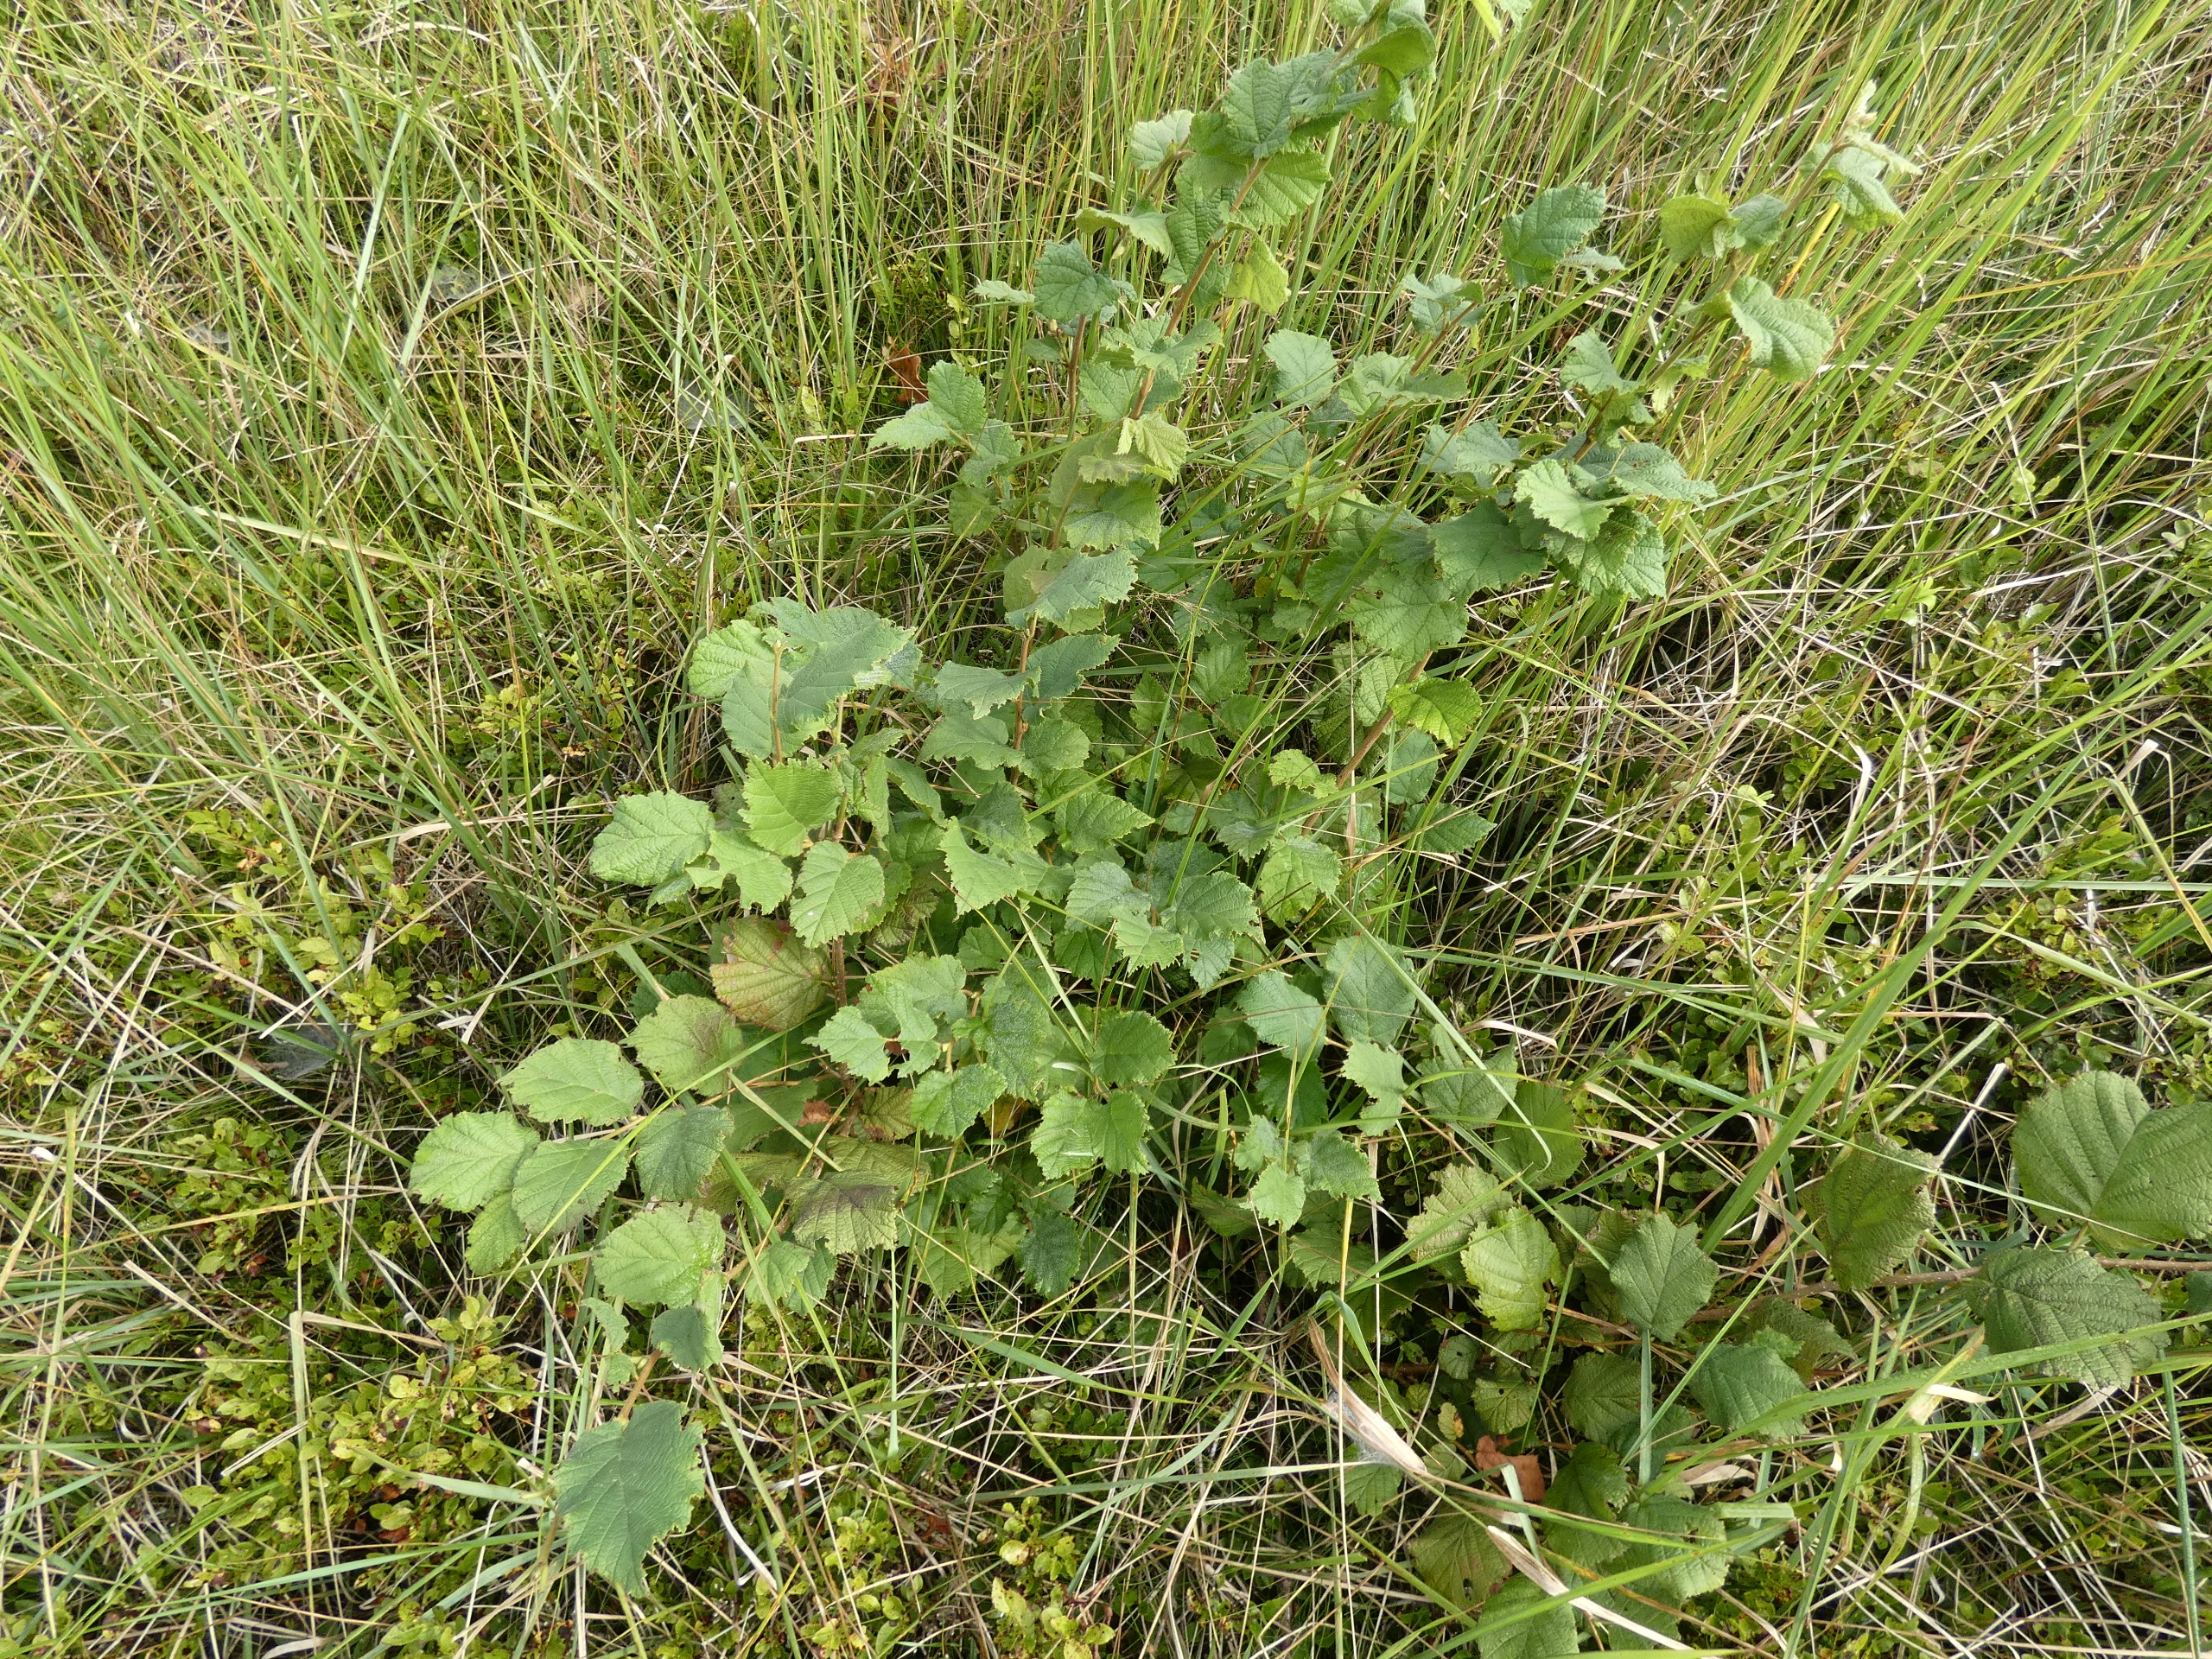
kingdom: Plantae
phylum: Tracheophyta
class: Magnoliopsida
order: Fagales
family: Betulaceae
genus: Corylus
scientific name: Corylus avellana
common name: Hassel
